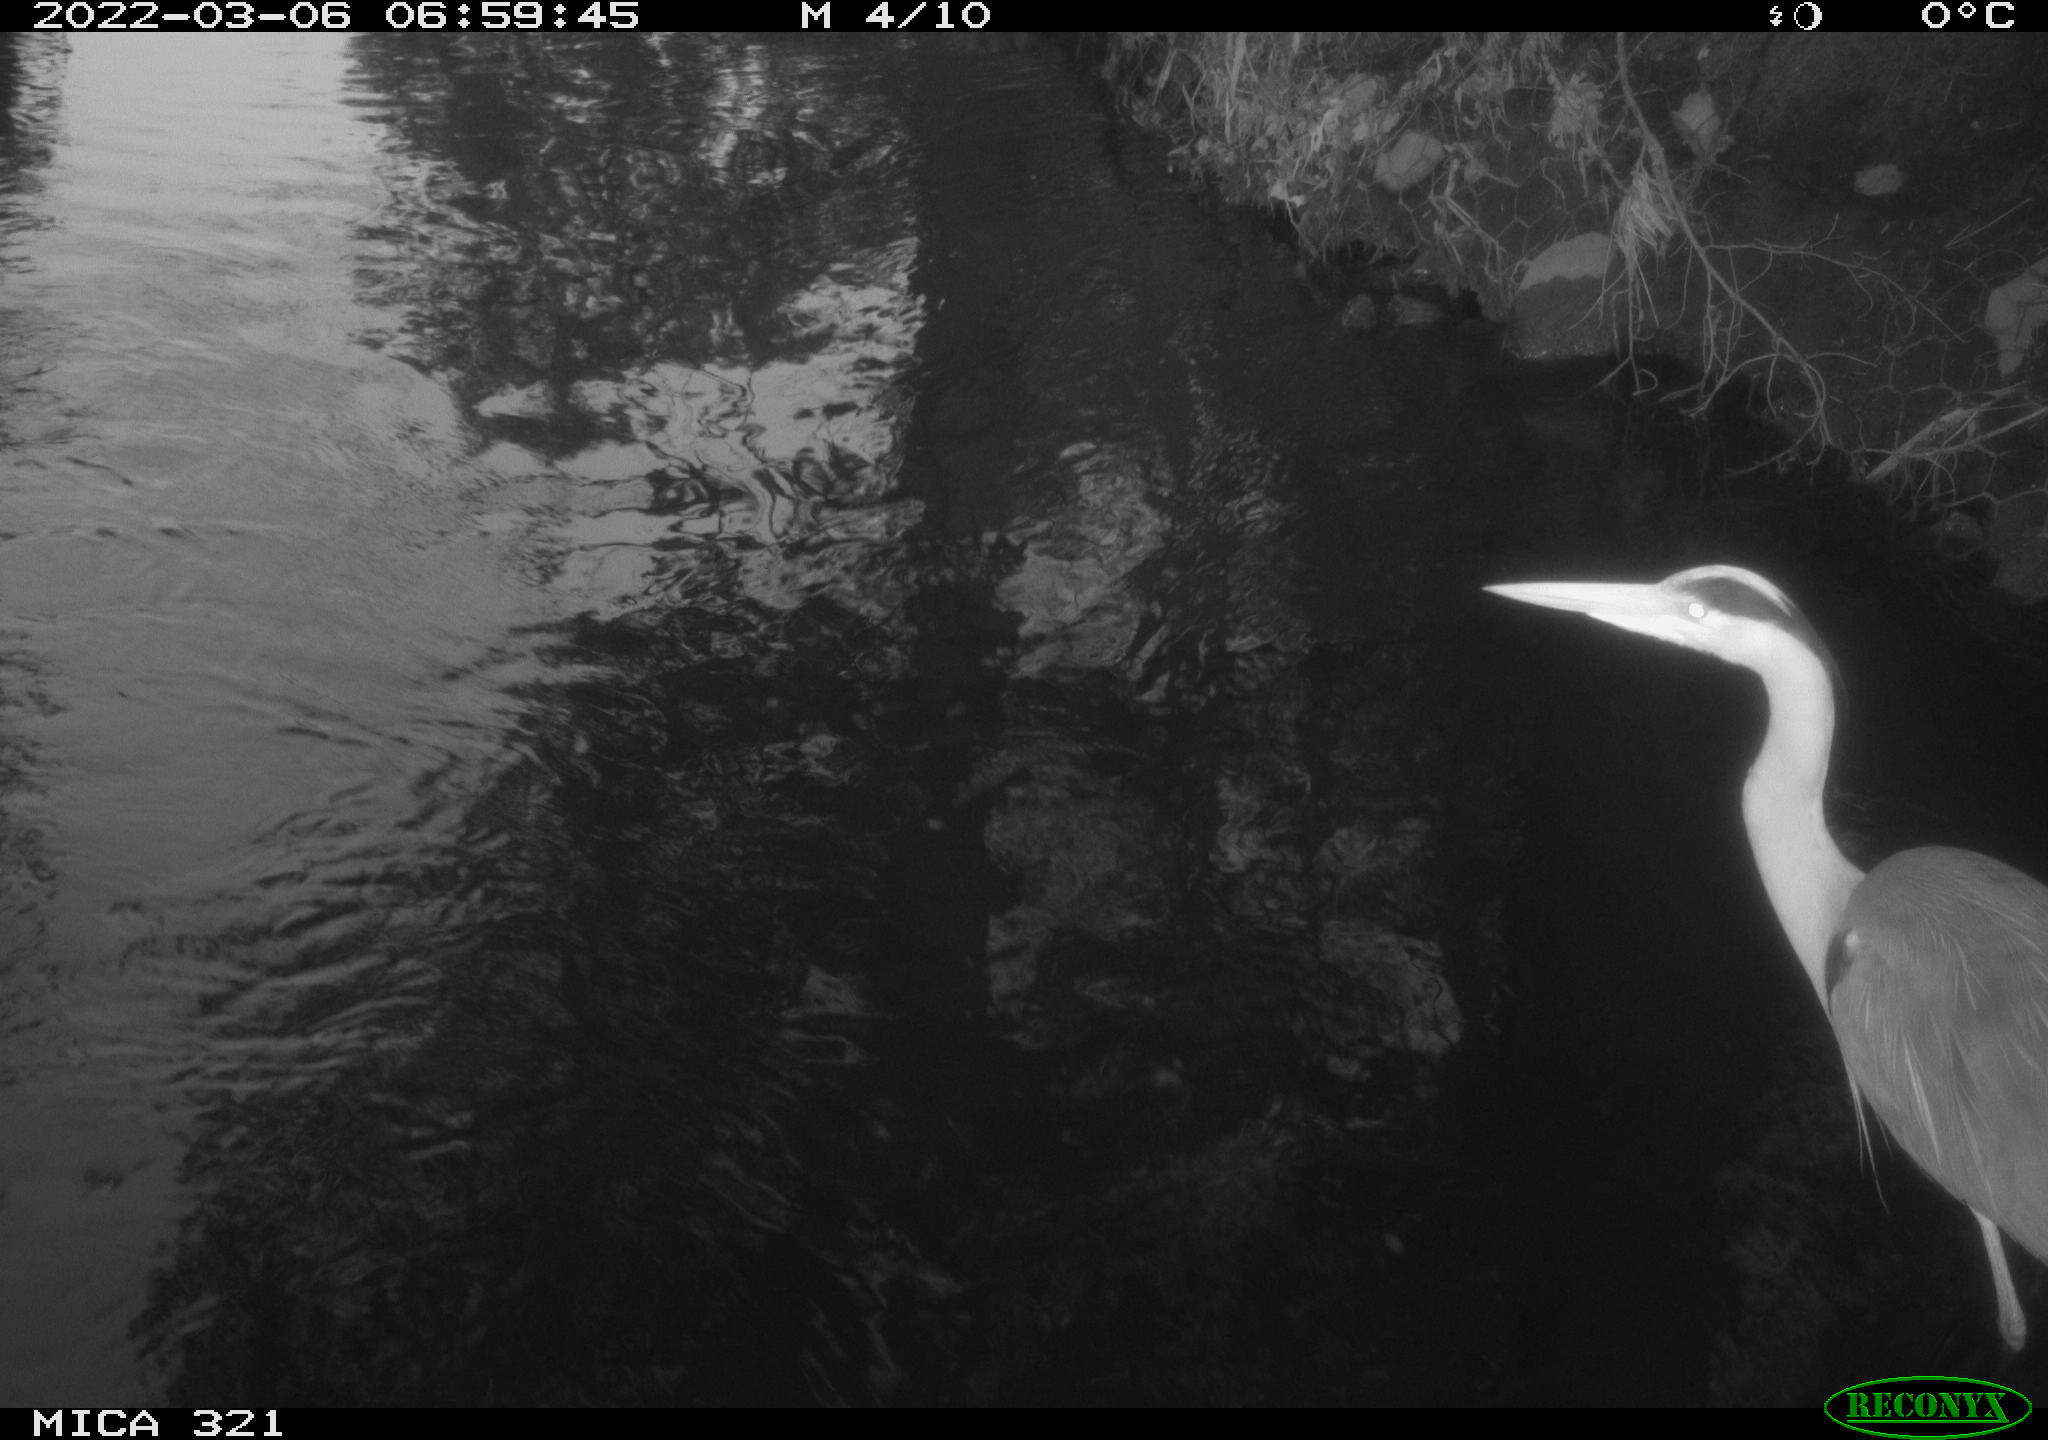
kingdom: Animalia
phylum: Chordata
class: Aves
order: Pelecaniformes
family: Ardeidae
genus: Ardea
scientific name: Ardea
